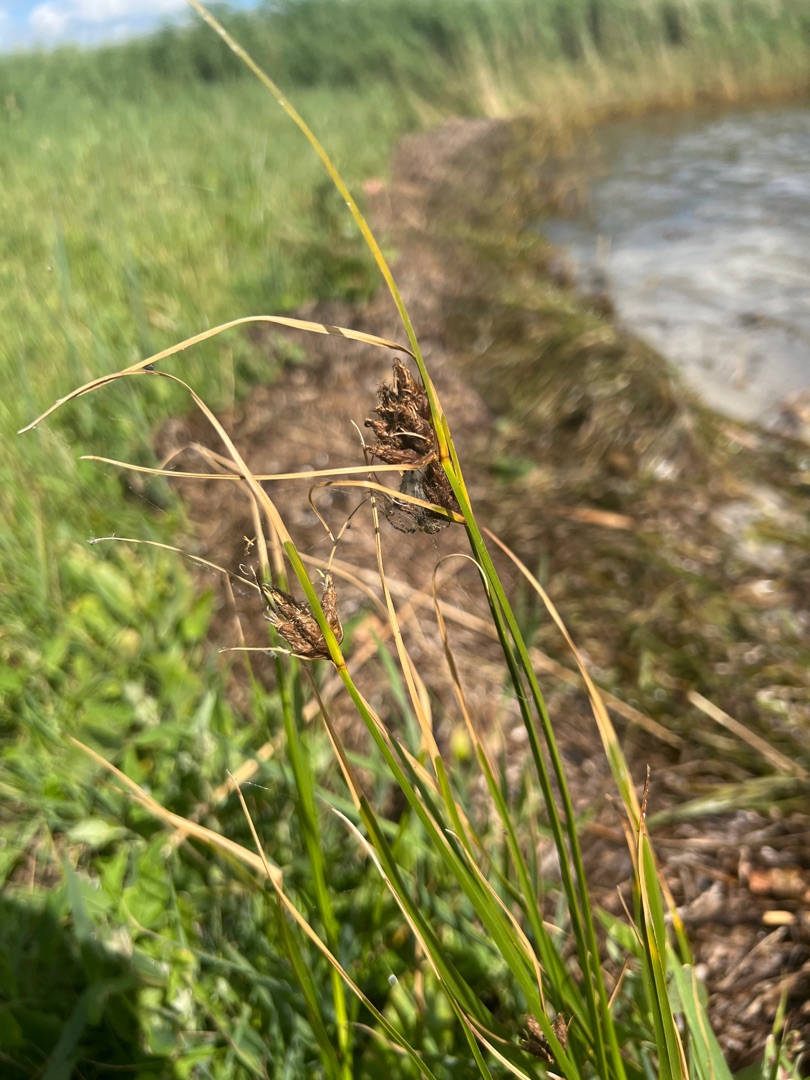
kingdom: Plantae
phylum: Tracheophyta
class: Liliopsida
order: Poales
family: Cyperaceae
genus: Bolboschoenus
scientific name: Bolboschoenus maritimus
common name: Strand-kogleaks
